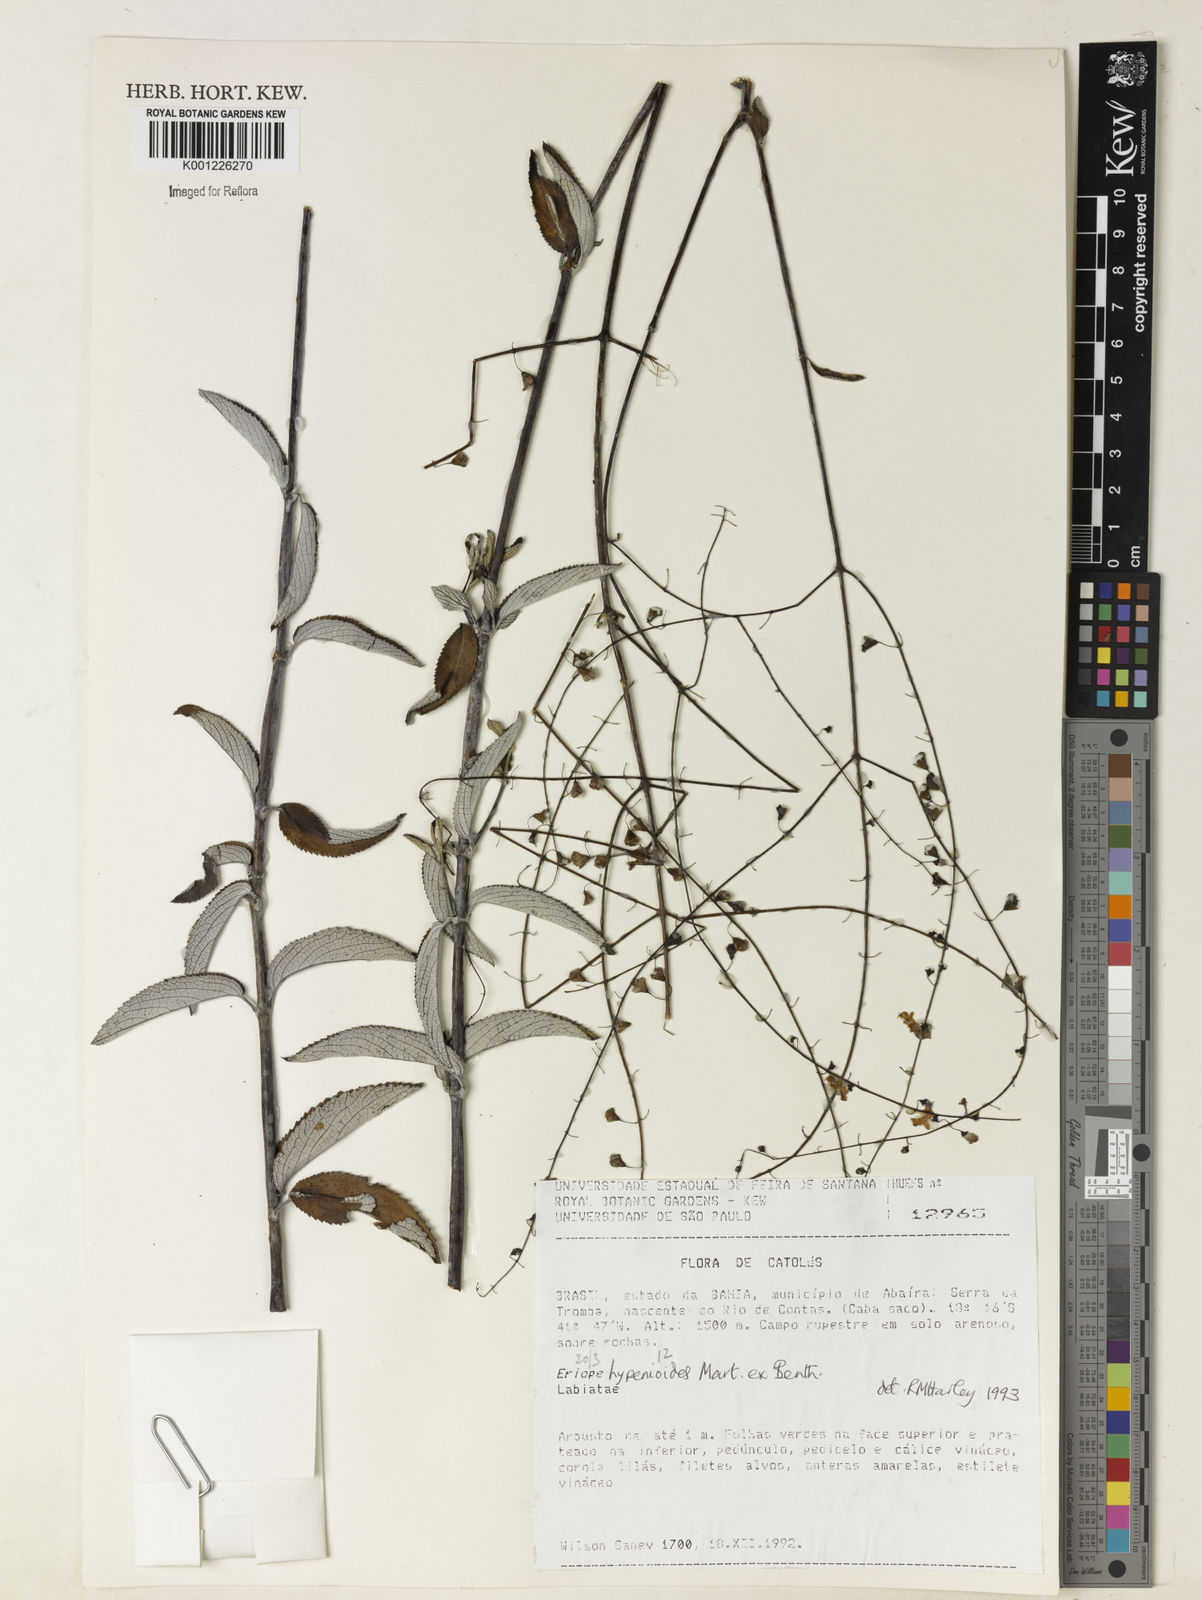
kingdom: Plantae
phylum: Tracheophyta
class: Magnoliopsida
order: Lamiales
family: Lamiaceae
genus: Eriope
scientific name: Eriope hypenioides
